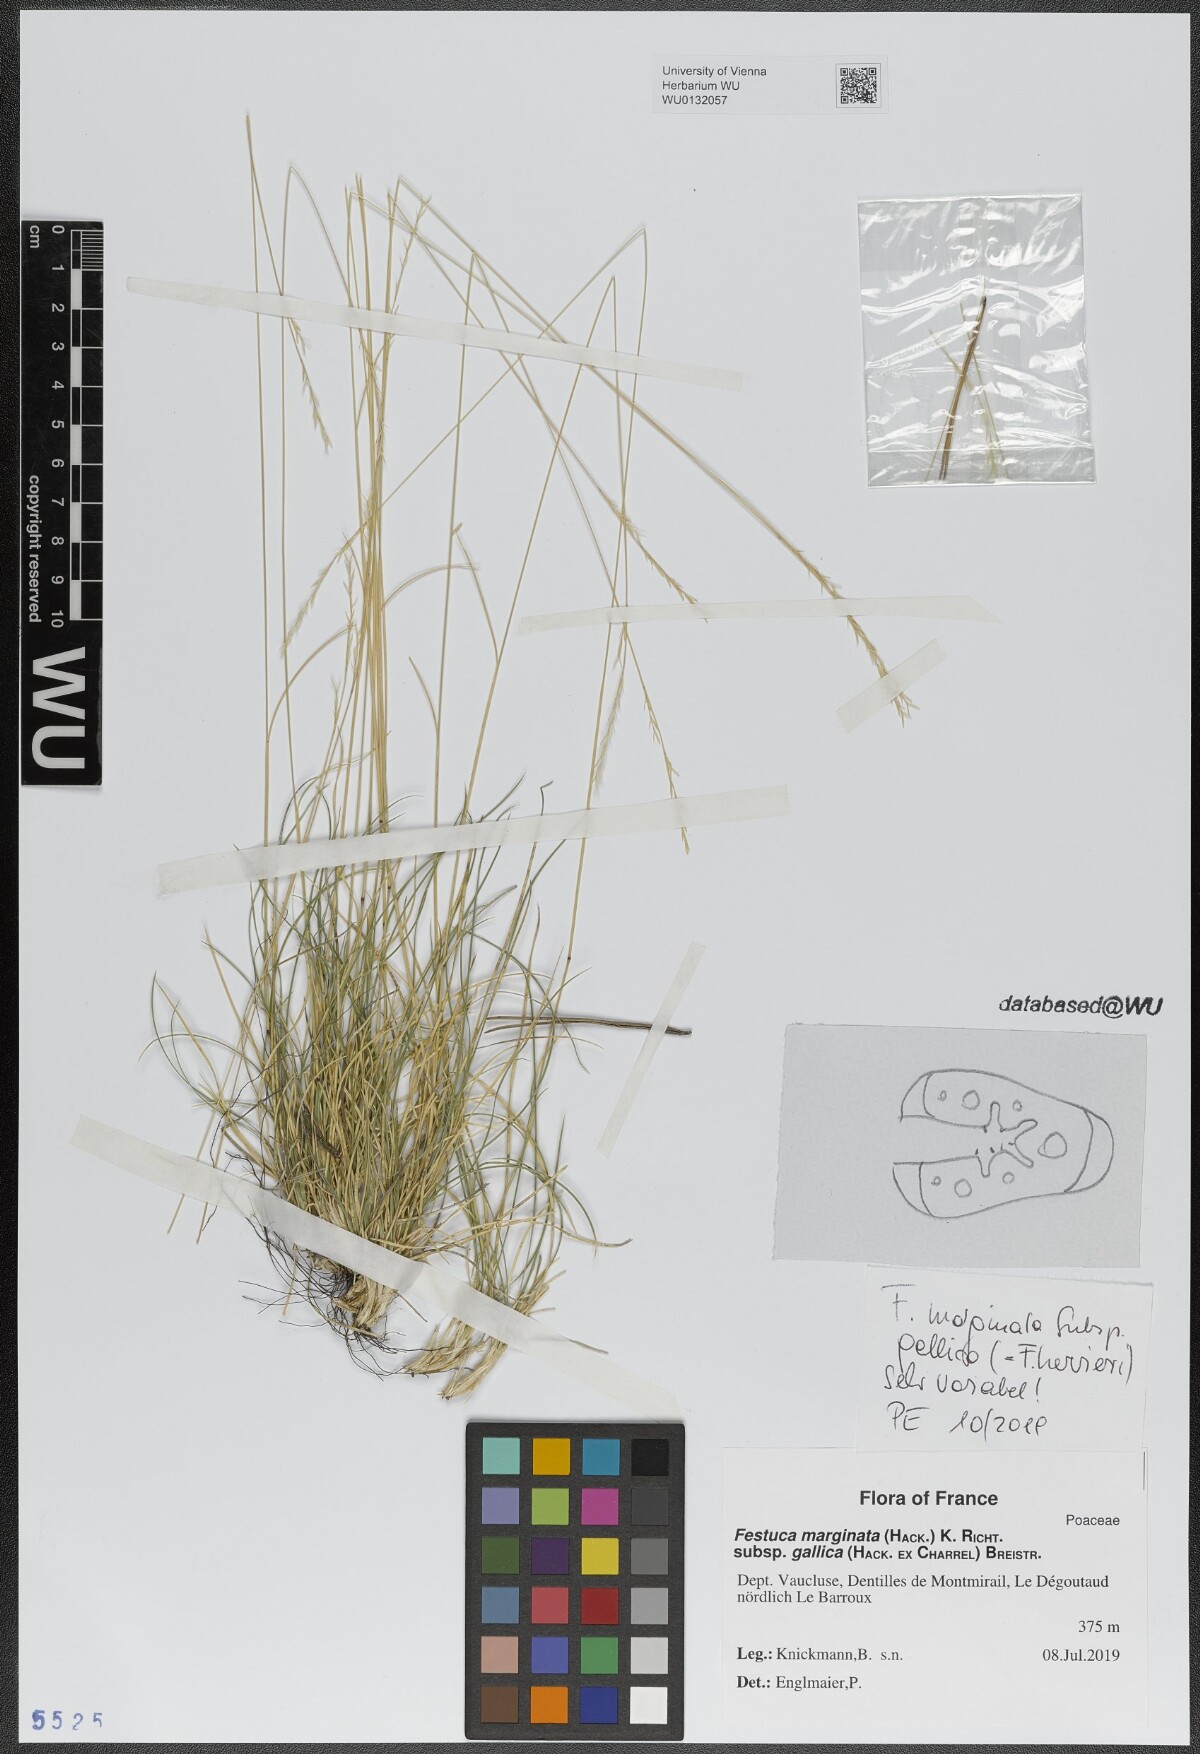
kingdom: Plantae
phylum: Tracheophyta
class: Liliopsida
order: Poales
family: Poaceae
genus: Festuca
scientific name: Festuca marginata
